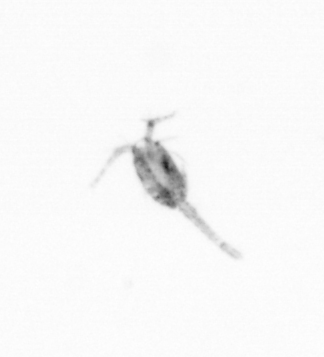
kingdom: Animalia
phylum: Arthropoda
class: Copepoda
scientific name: Copepoda
